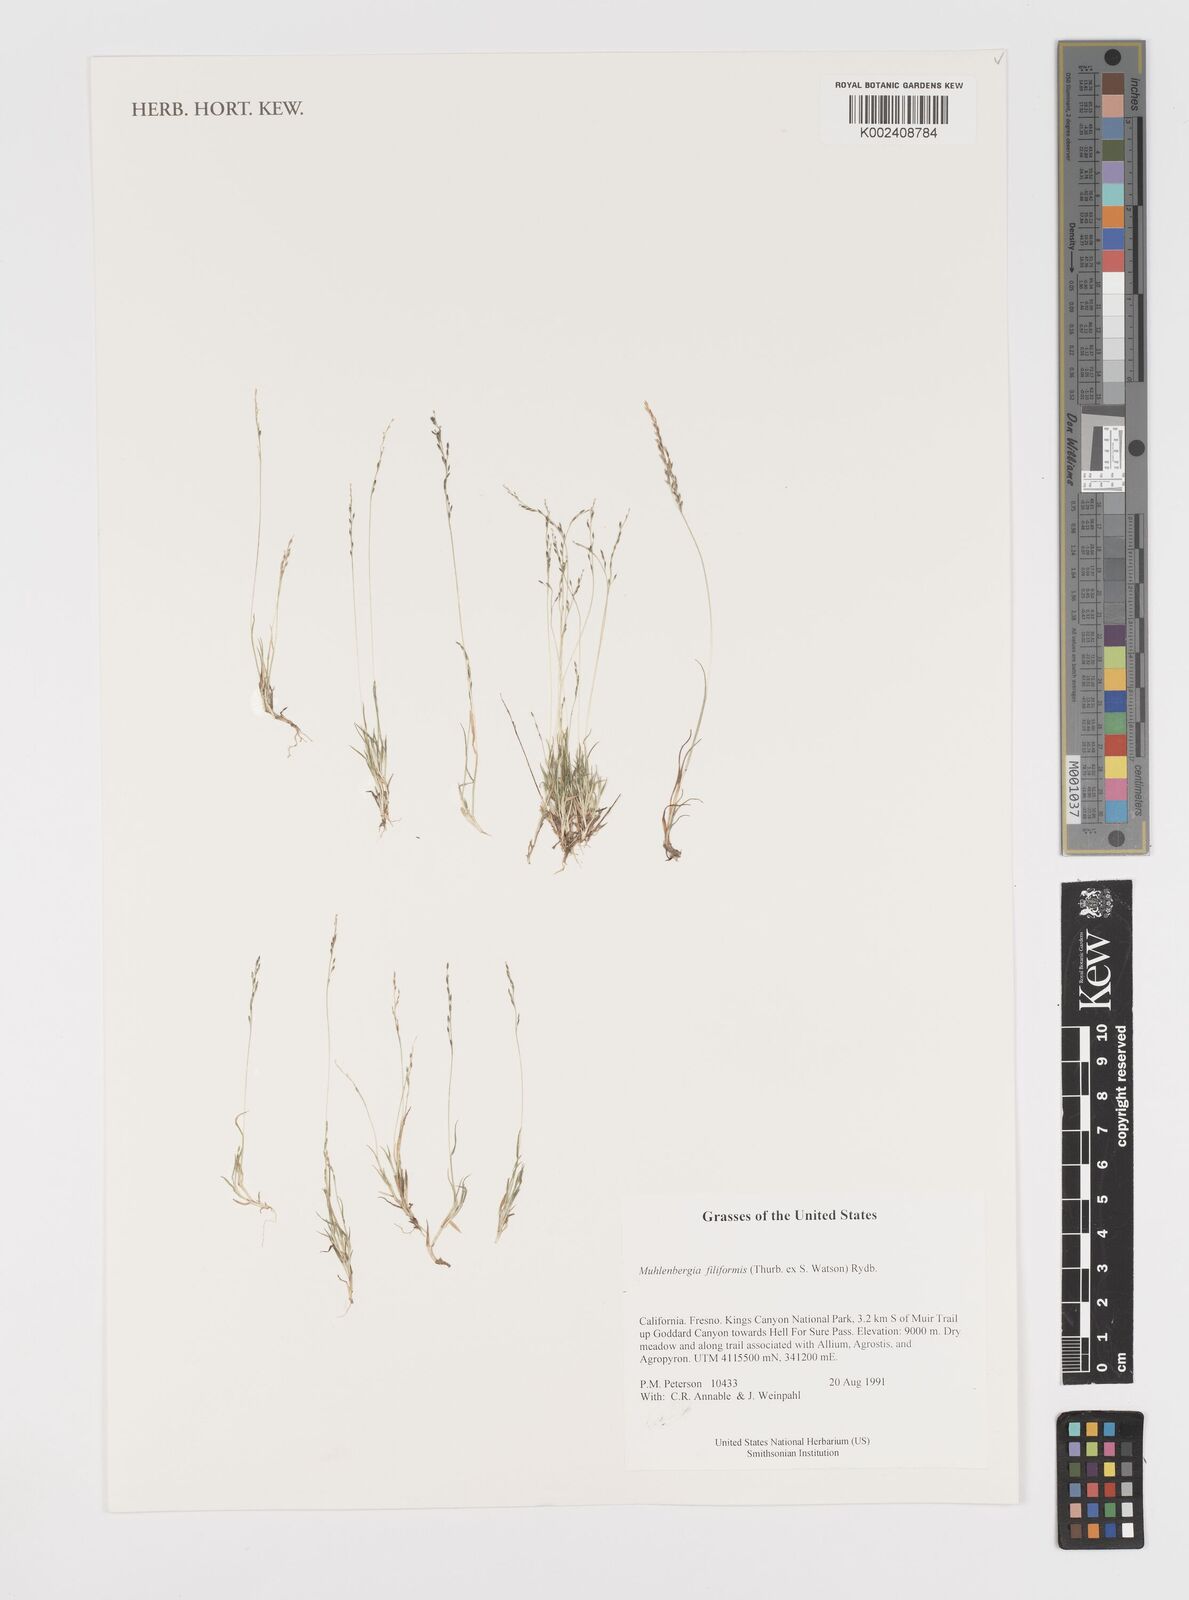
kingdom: Plantae
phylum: Tracheophyta
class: Liliopsida
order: Poales
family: Poaceae
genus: Leptochloa
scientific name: Leptochloa mucronata
